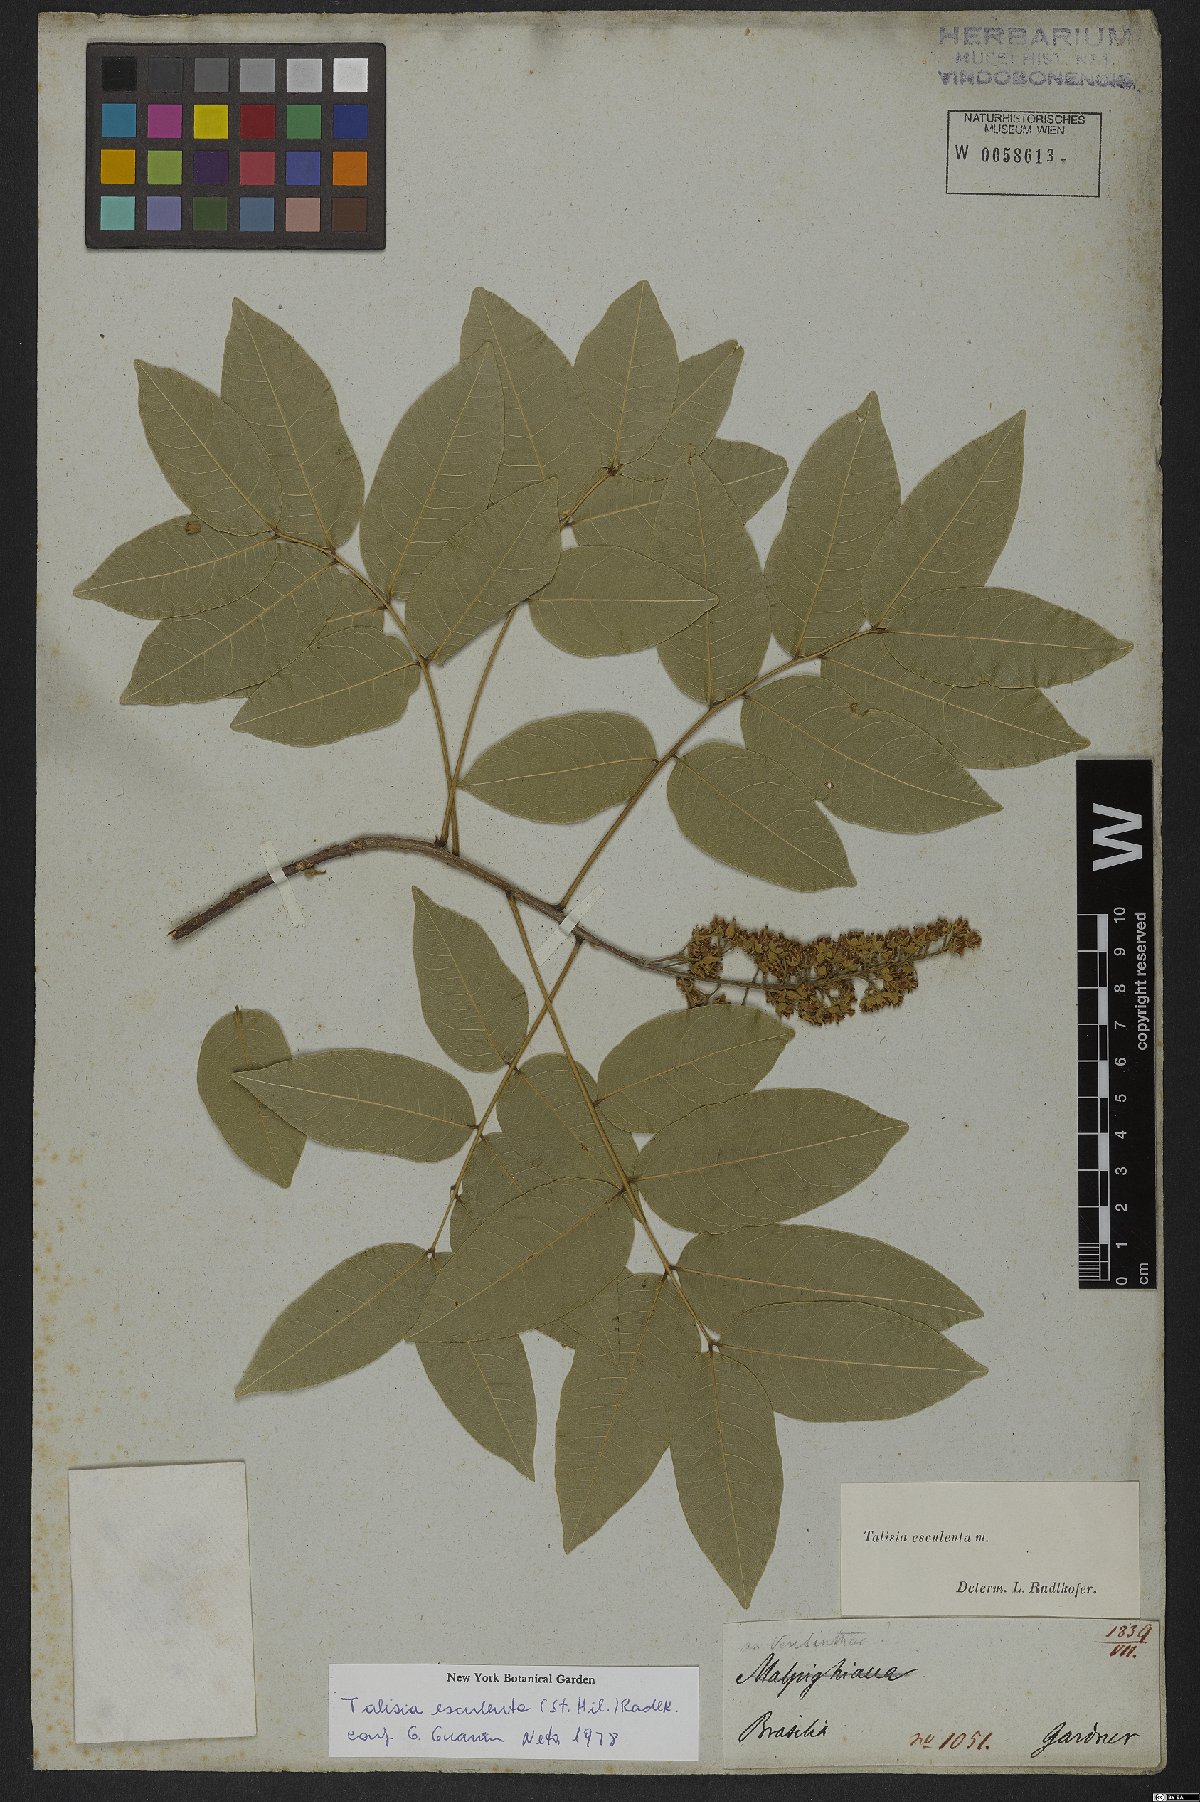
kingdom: Plantae
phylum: Tracheophyta
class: Magnoliopsida
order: Sapindales
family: Sapindaceae
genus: Talisia
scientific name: Talisia esculenta
